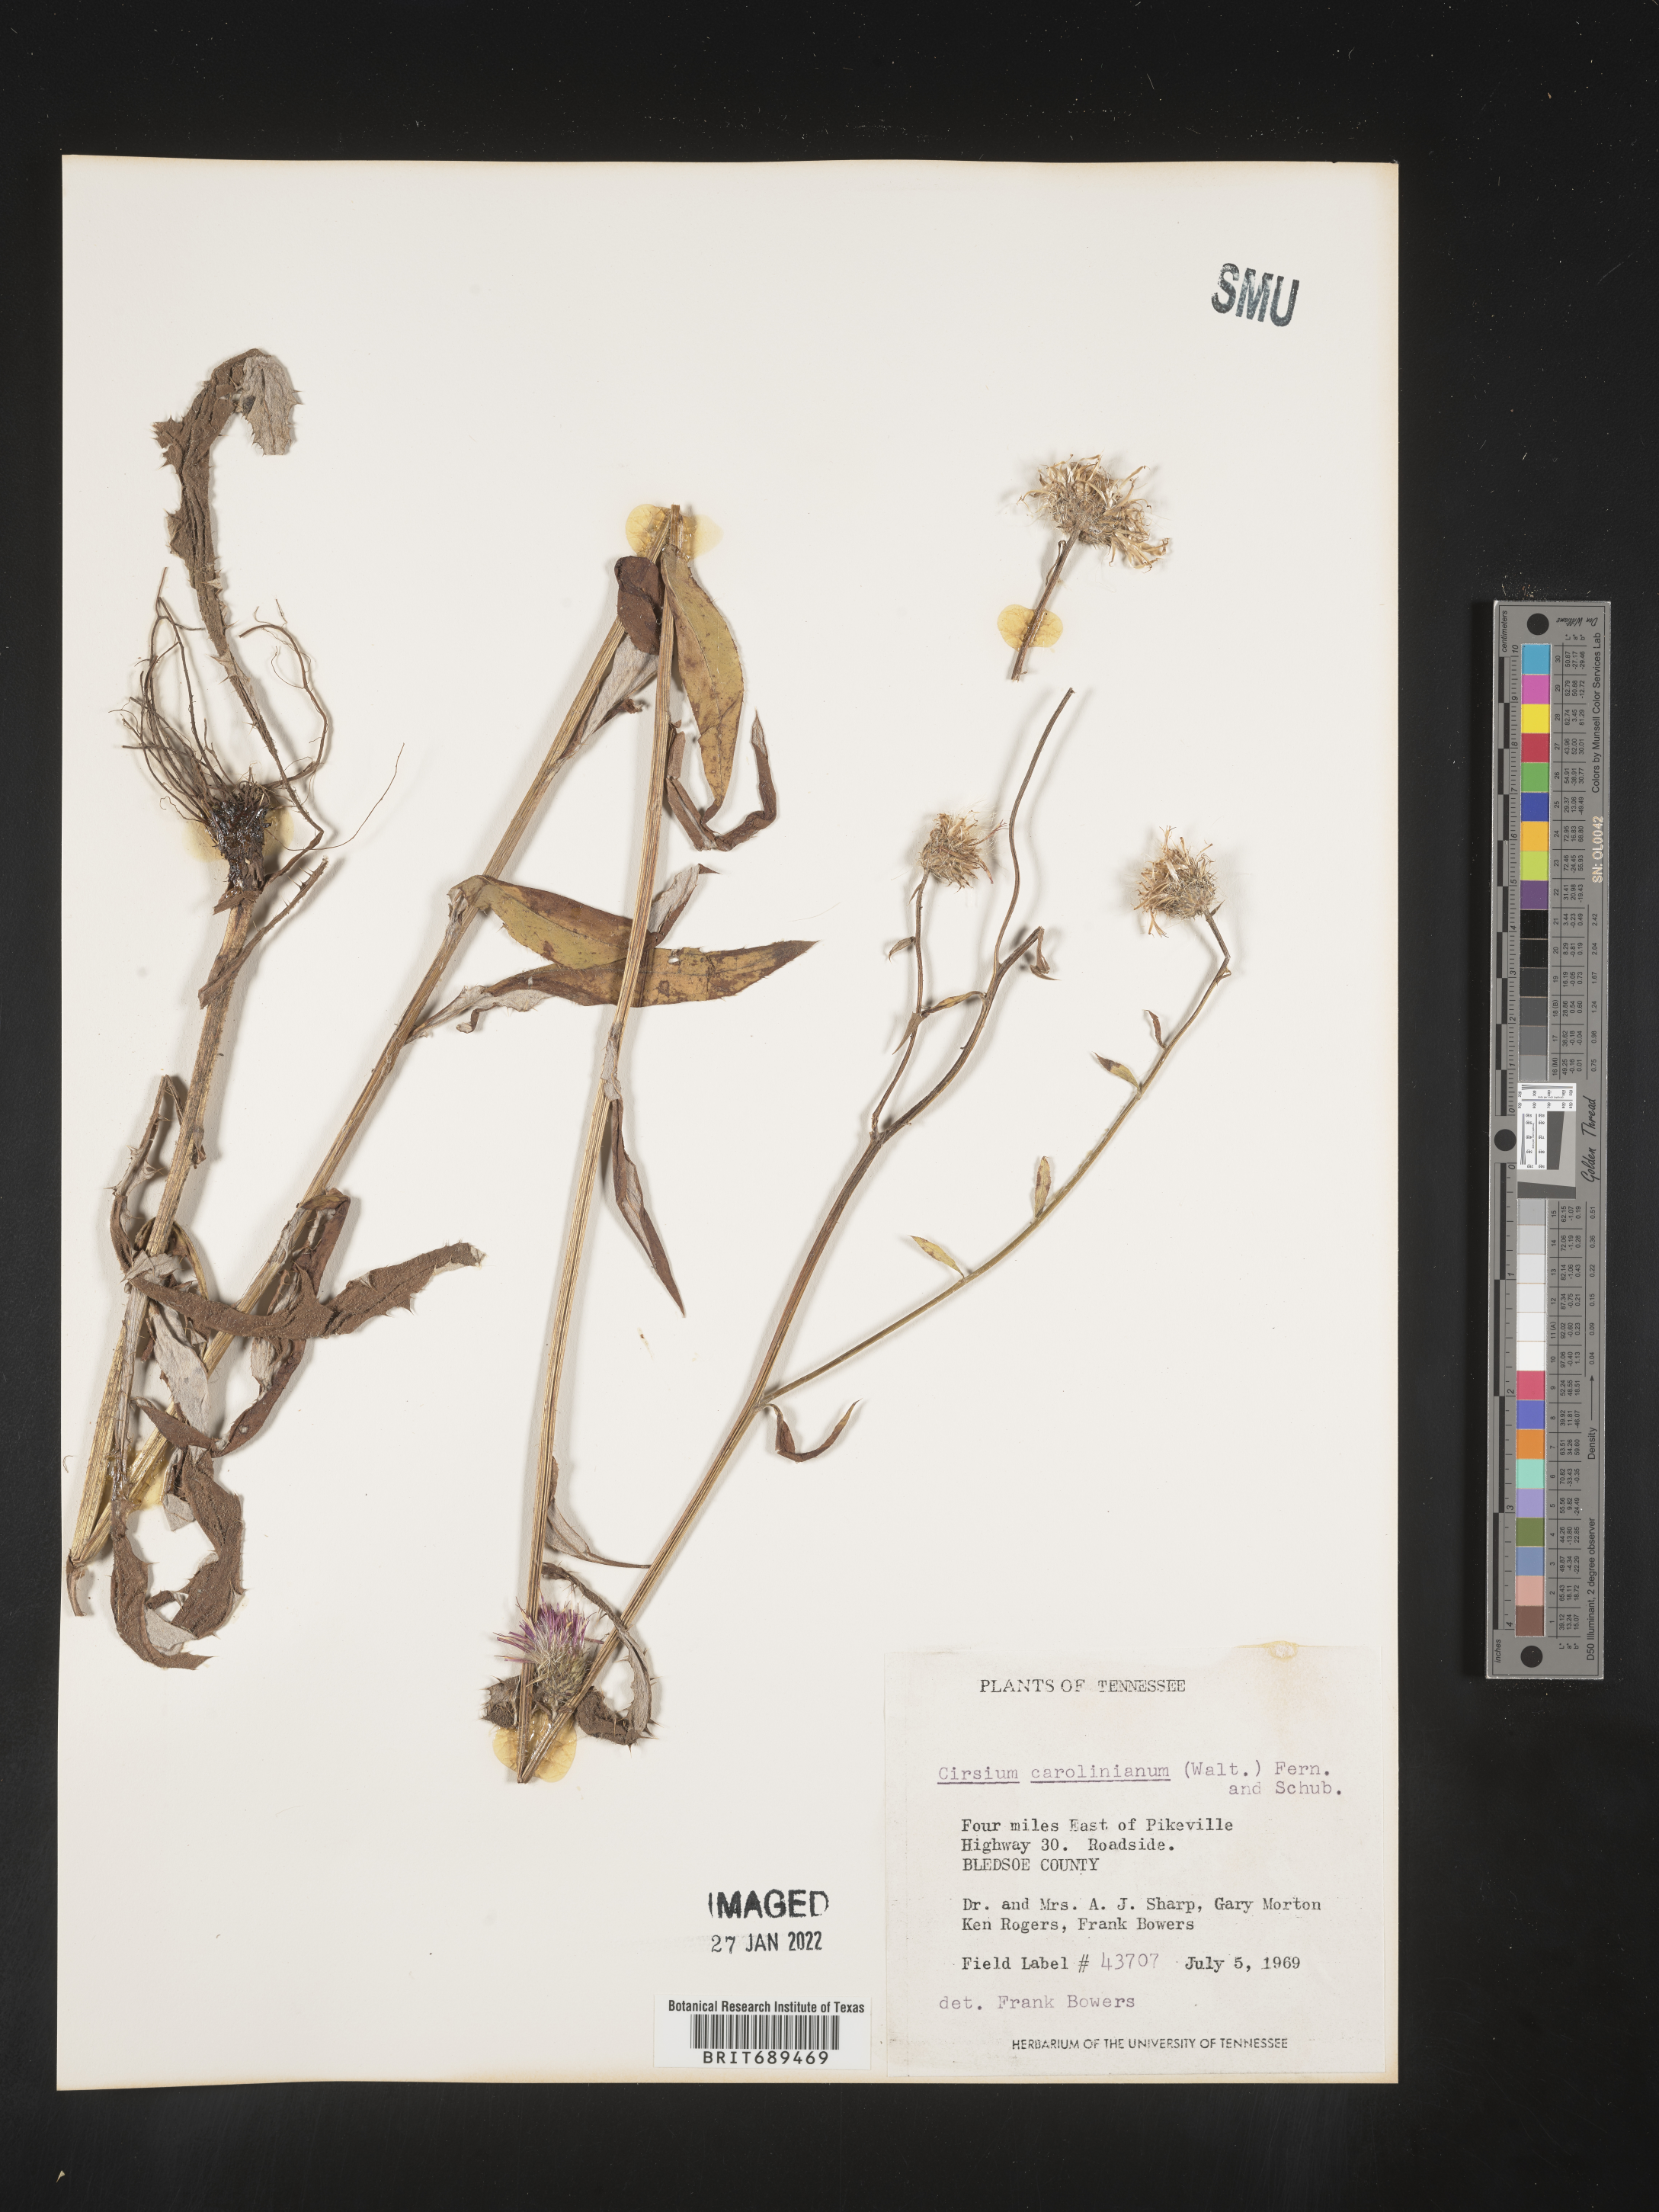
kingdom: Plantae
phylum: Tracheophyta
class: Magnoliopsida
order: Asterales
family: Asteraceae
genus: Cirsium
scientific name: Cirsium carolinianum
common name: Carolina thistle
